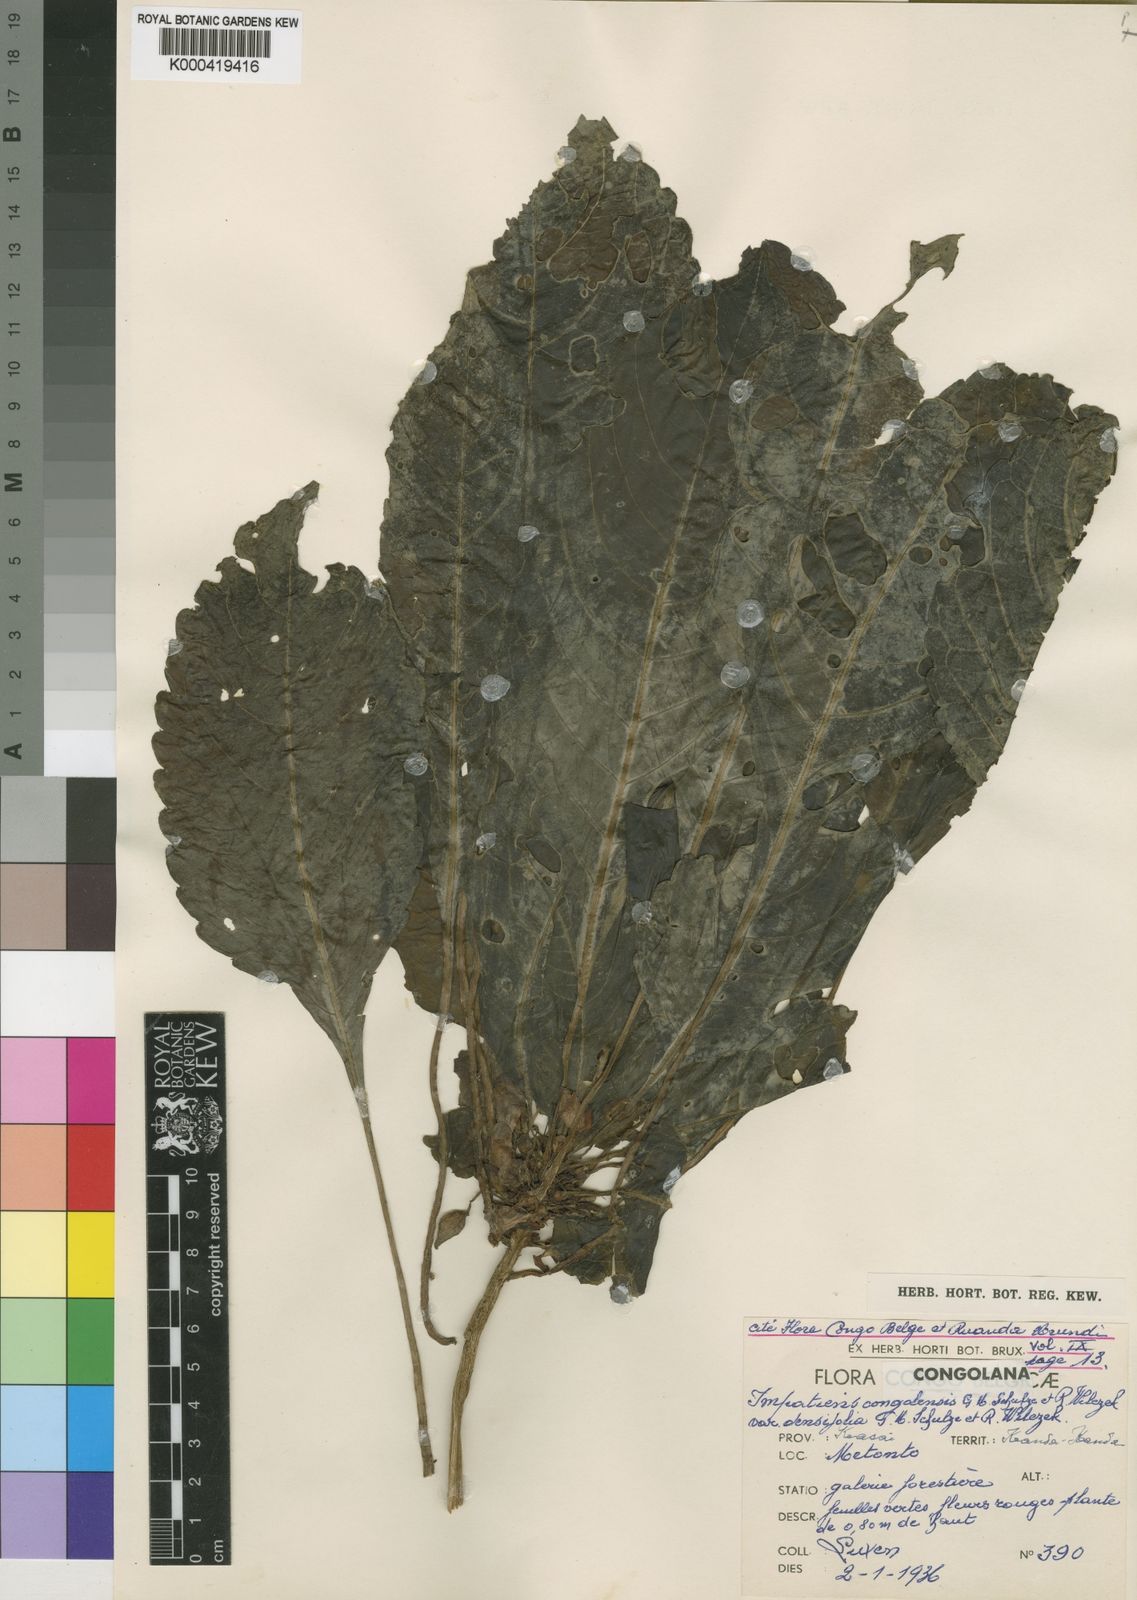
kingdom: Plantae
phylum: Tracheophyta
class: Magnoliopsida
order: Ericales
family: Balsaminaceae
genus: Impatiens
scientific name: Impatiens densifolia
